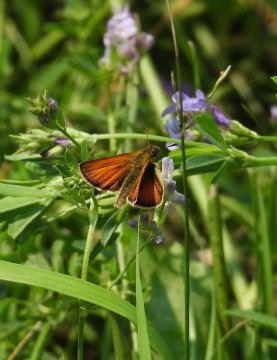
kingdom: Animalia
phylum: Arthropoda
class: Insecta
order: Lepidoptera
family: Hesperiidae
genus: Thymelicus
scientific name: Thymelicus lineola
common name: European Skipper
